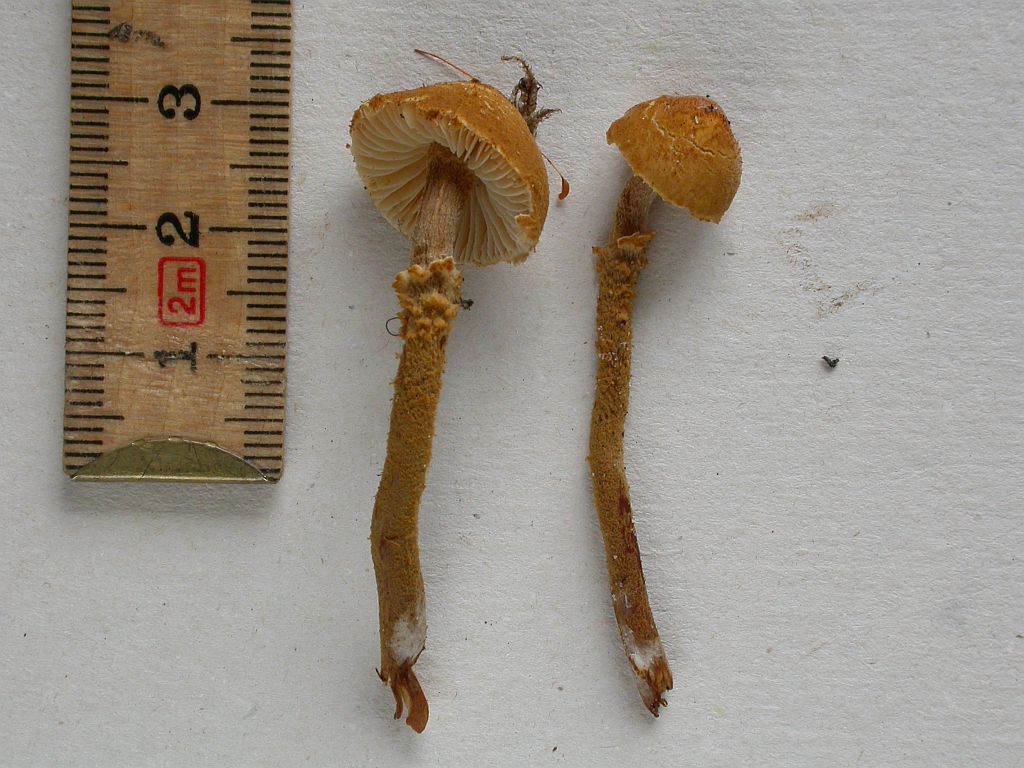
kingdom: Fungi
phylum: Basidiomycota
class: Agaricomycetes
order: Agaricales
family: Tricholomataceae
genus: Cystoderma
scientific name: Cystoderma jasonis
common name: gulkødet grynhat
